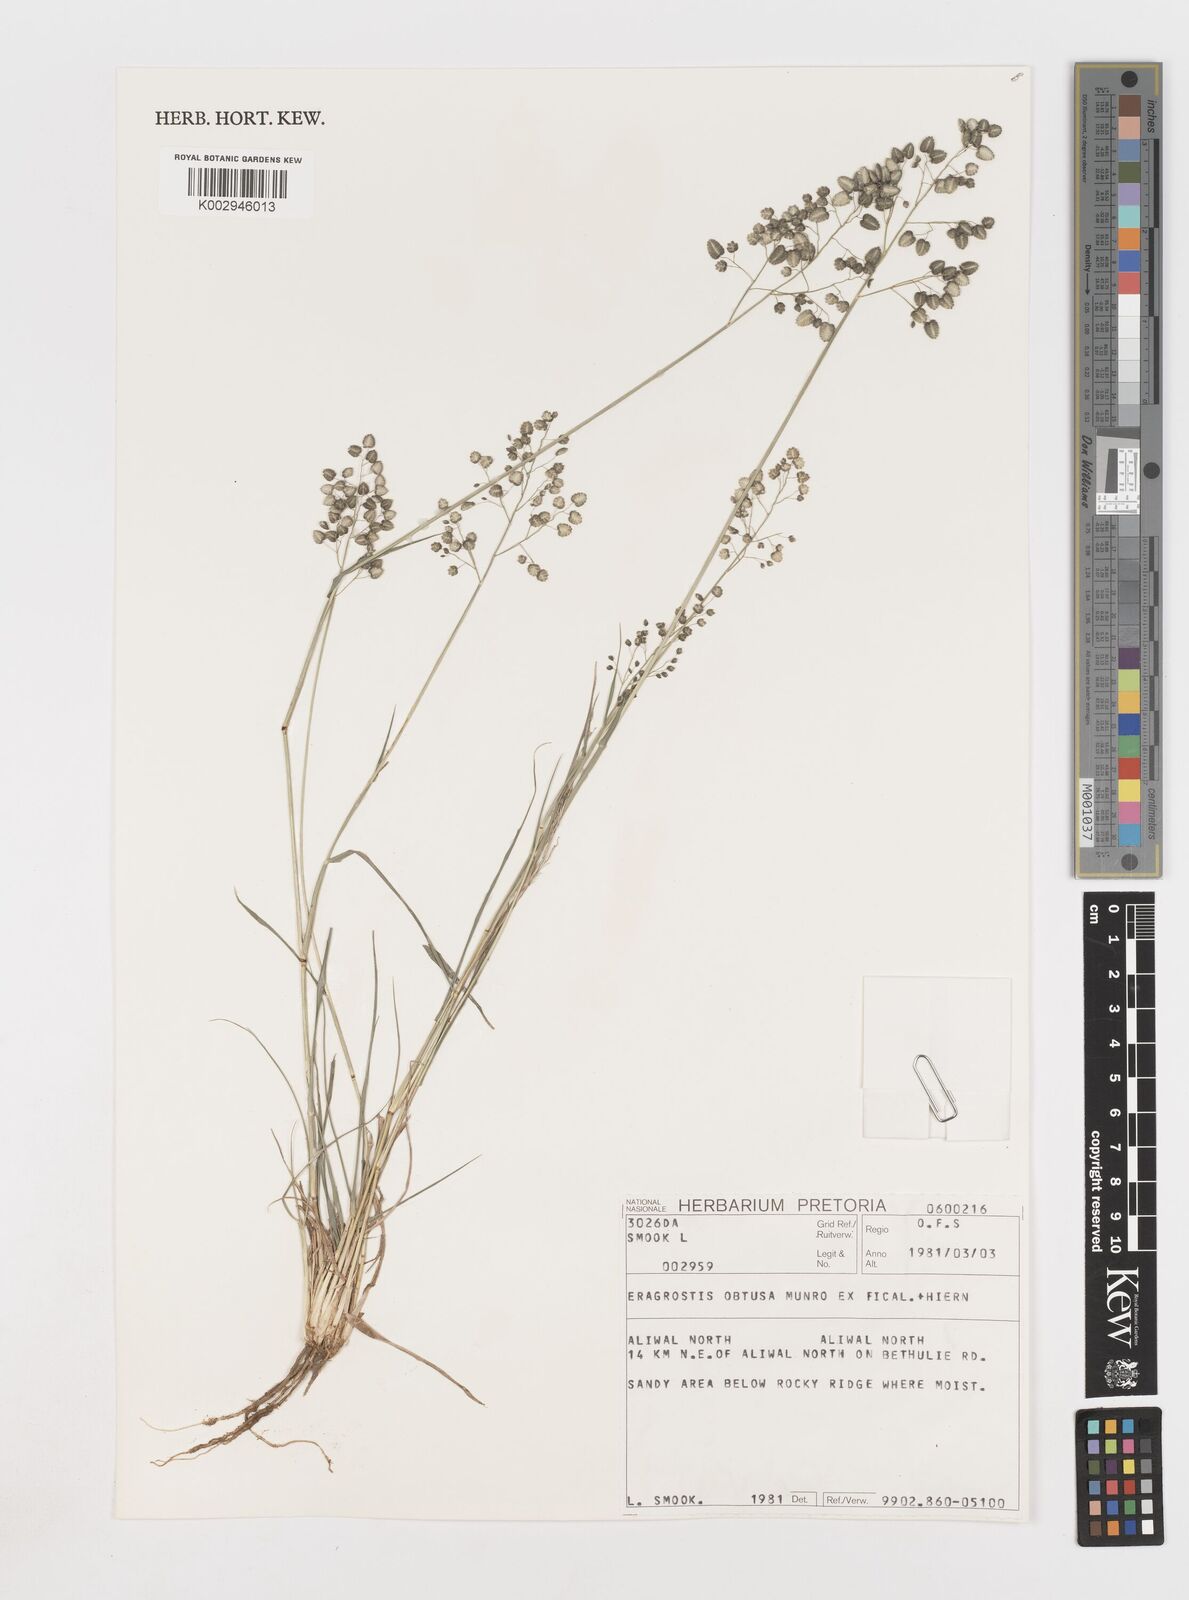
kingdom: Plantae
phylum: Tracheophyta
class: Liliopsida
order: Poales
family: Poaceae
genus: Eragrostis
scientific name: Eragrostis obtusa
